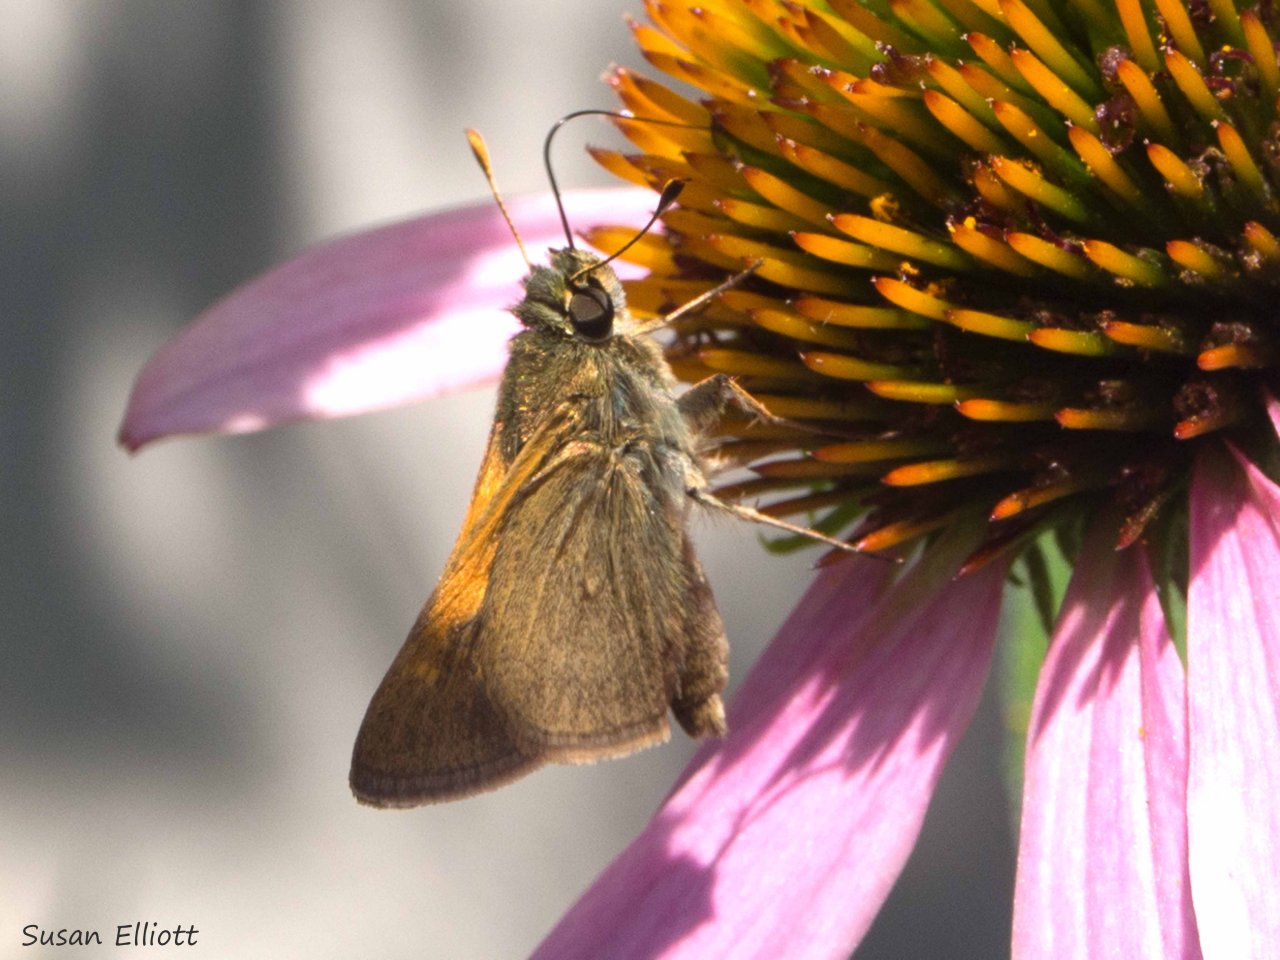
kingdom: Animalia
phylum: Arthropoda
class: Insecta
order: Lepidoptera
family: Hesperiidae
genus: Polites
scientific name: Polites themistocles
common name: Tawny-edged Skipper
